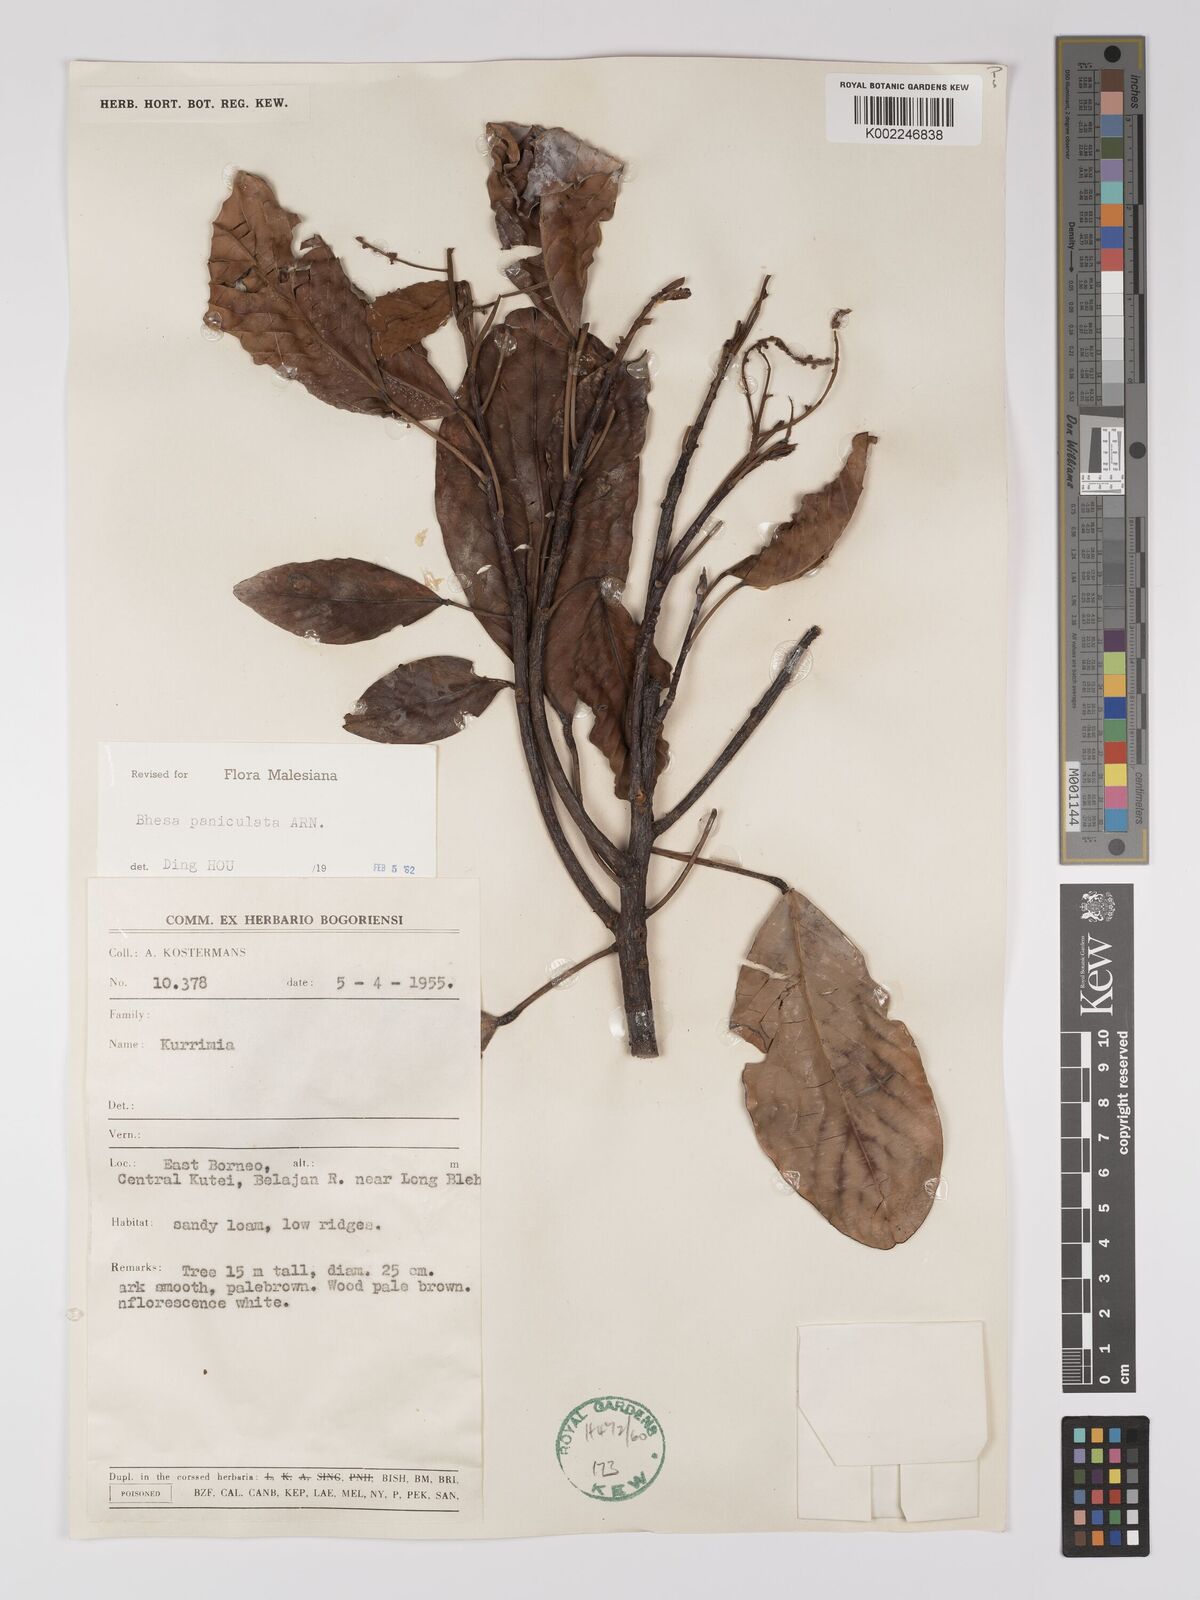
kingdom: Plantae
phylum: Tracheophyta
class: Magnoliopsida
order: Malpighiales
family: Centroplacaceae
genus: Bhesa
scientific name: Bhesa paniculata
